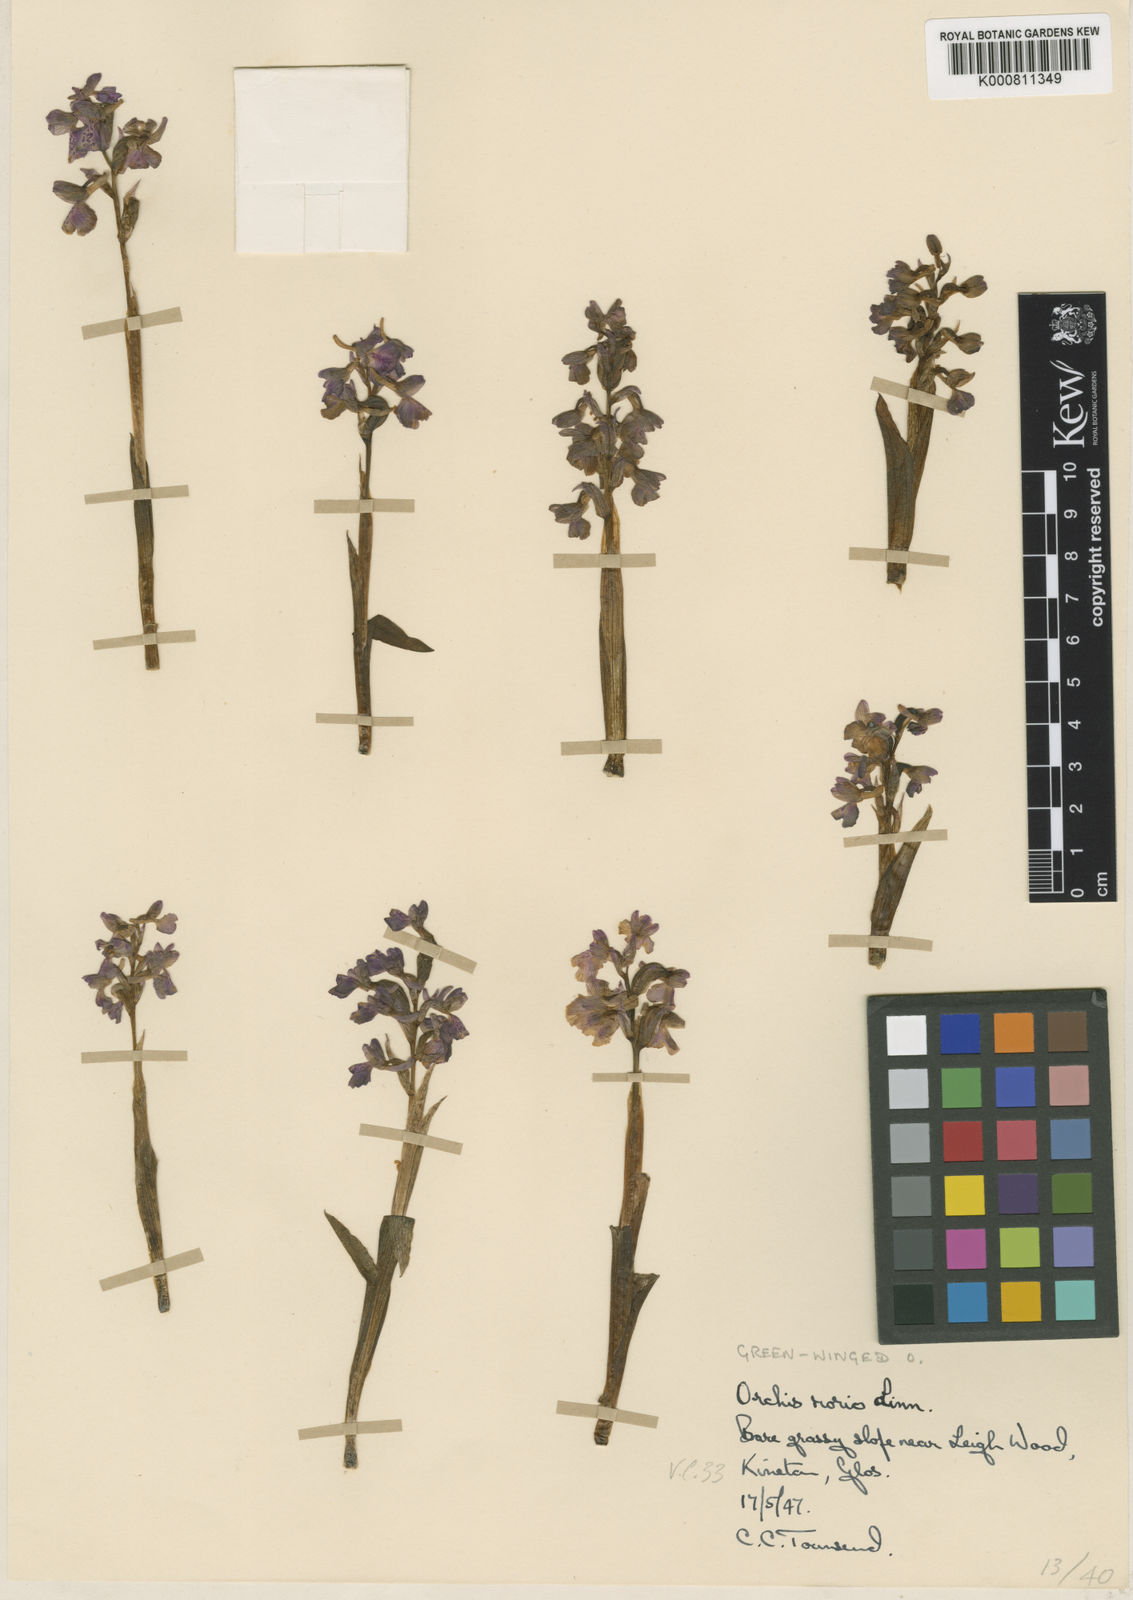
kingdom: Plantae
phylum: Tracheophyta
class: Liliopsida
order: Asparagales
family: Orchidaceae
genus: Anacamptis
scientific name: Anacamptis morio
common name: Green-winged orchid
